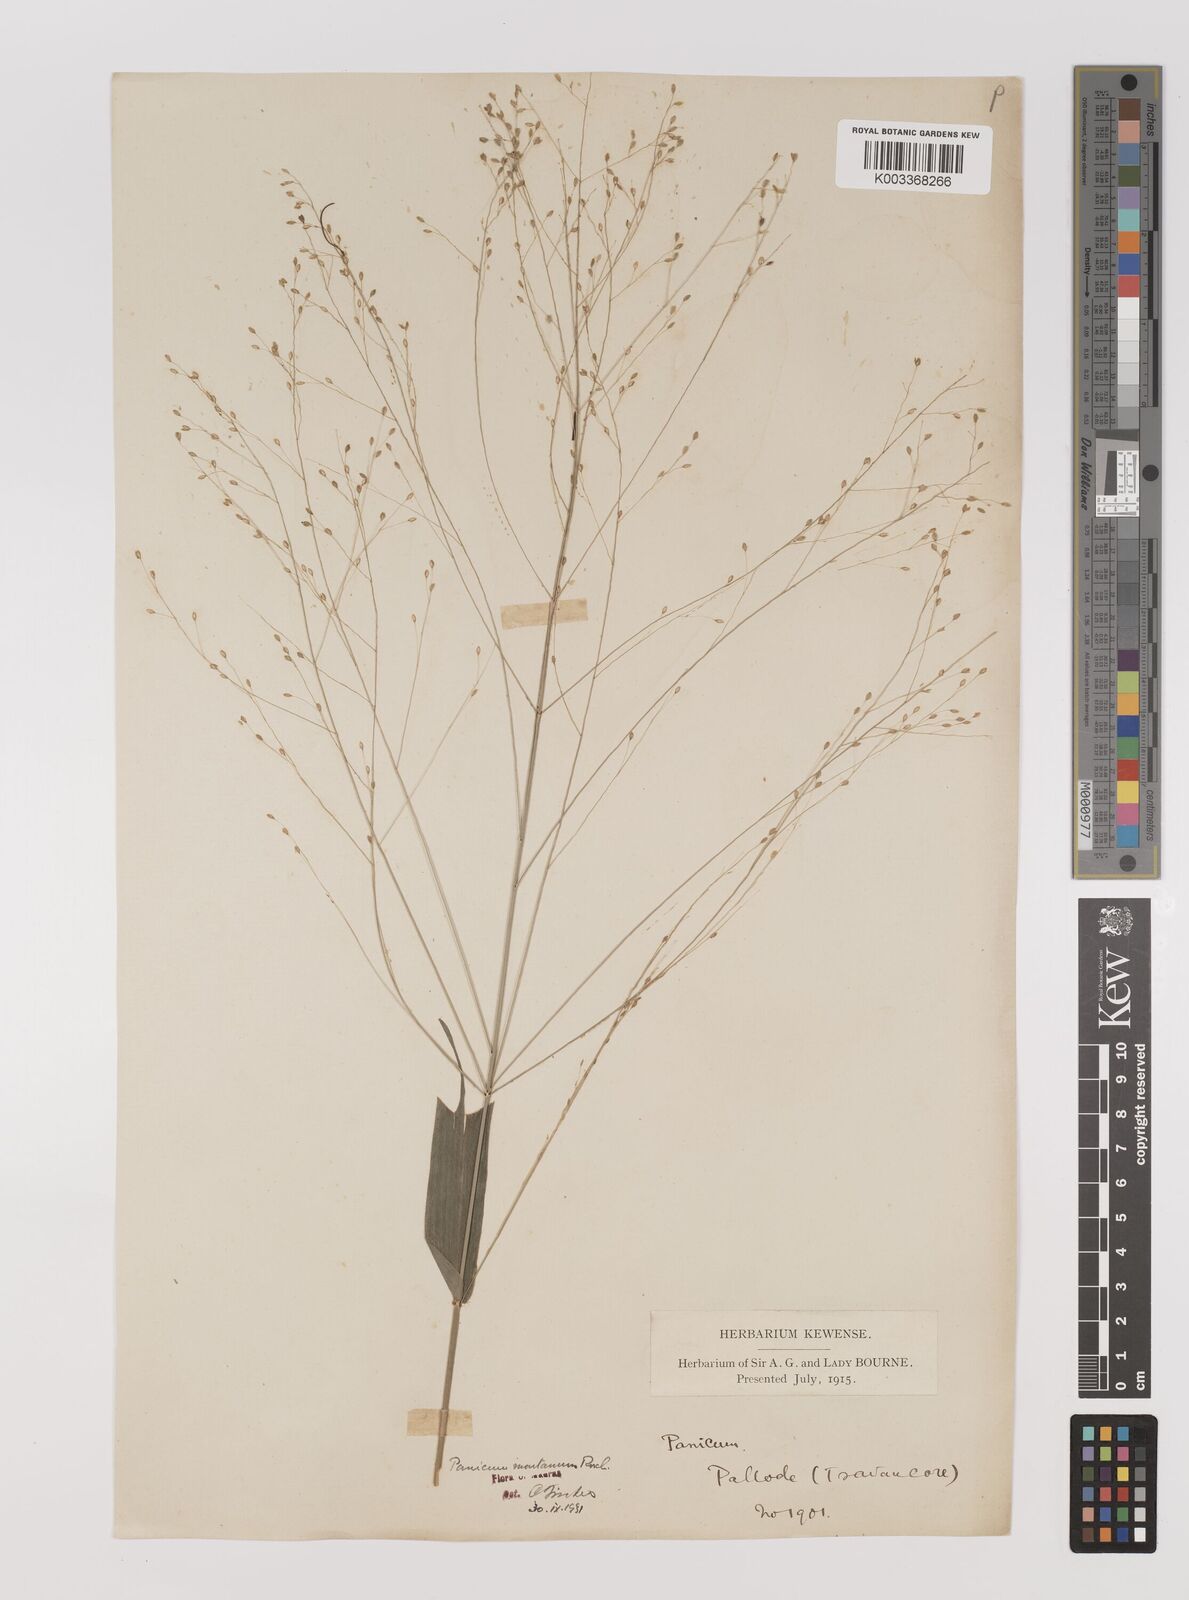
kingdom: Plantae
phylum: Tracheophyta
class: Liliopsida
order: Poales
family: Poaceae
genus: Panicum
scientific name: Panicum notatum
